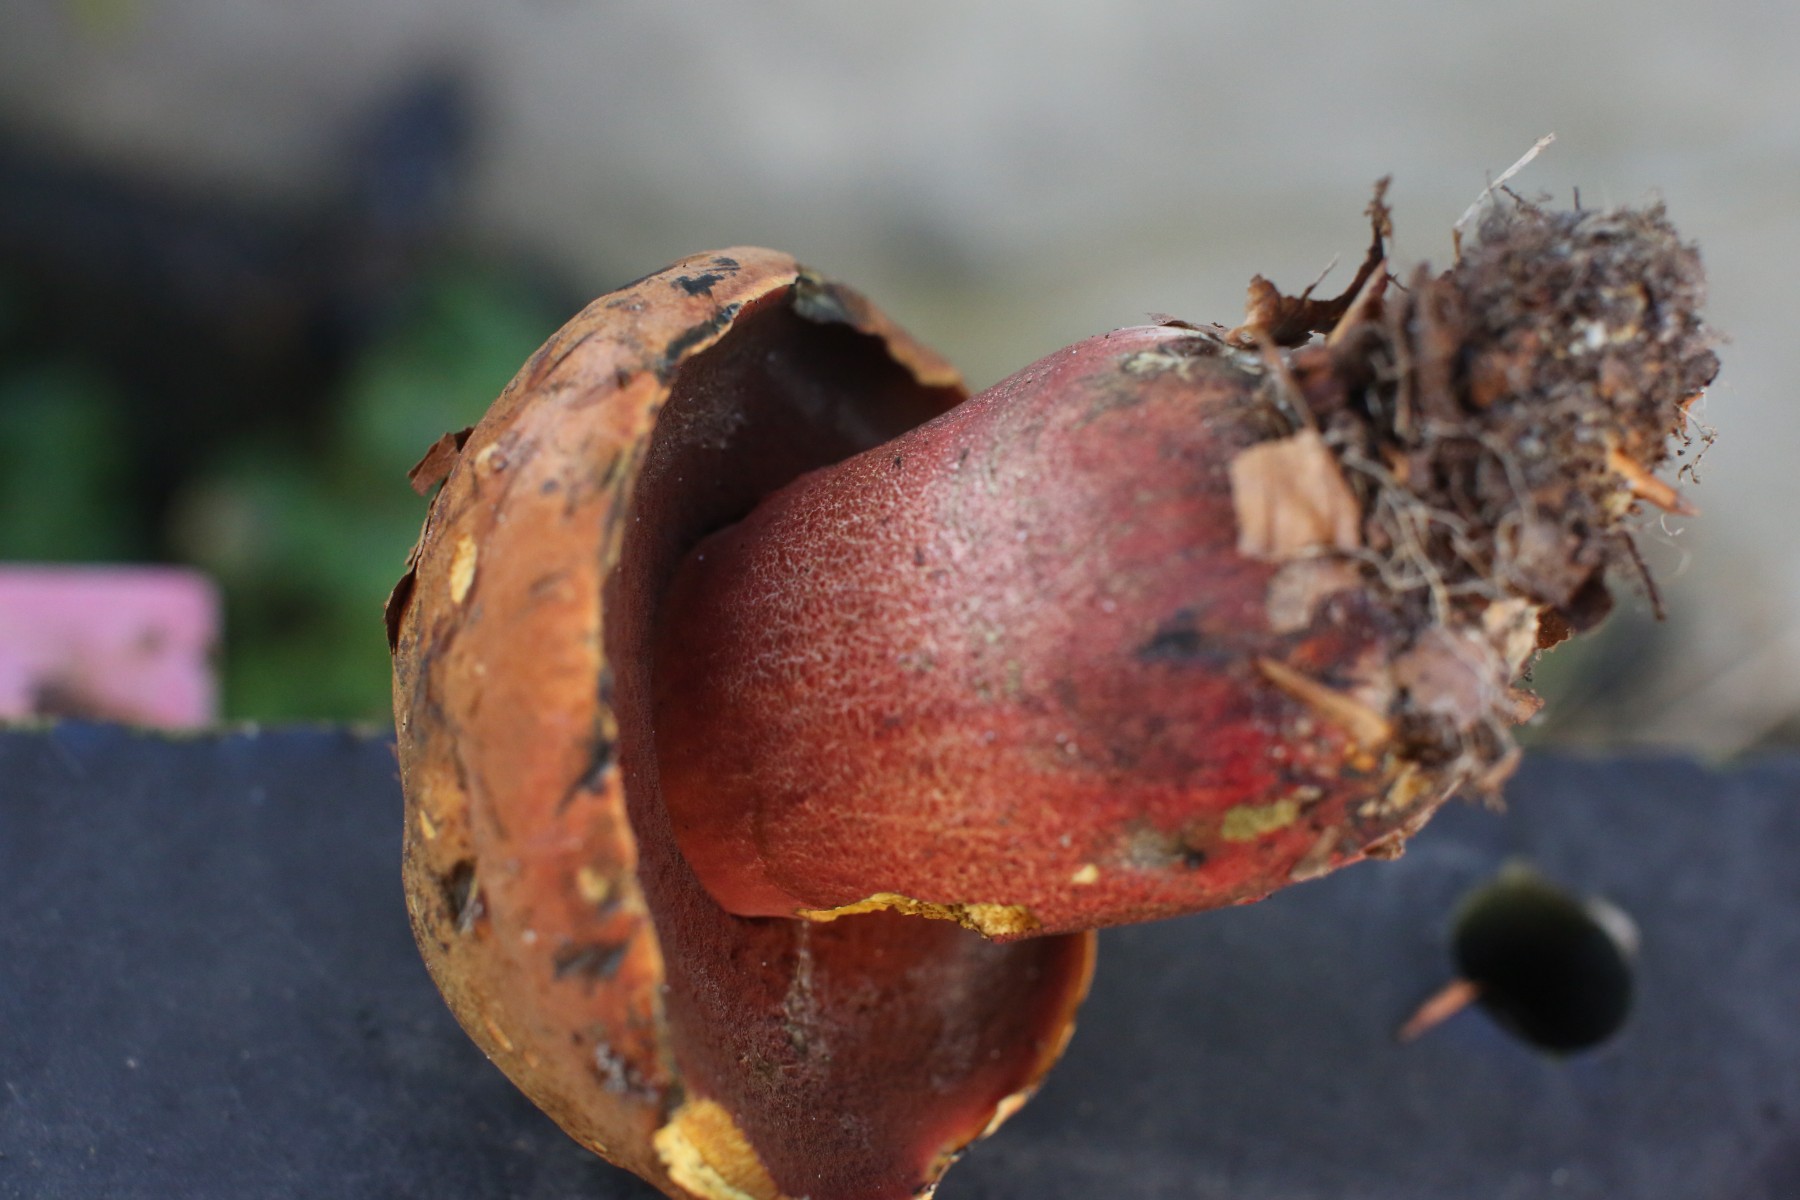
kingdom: Fungi
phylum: Basidiomycota
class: Agaricomycetes
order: Boletales
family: Boletaceae
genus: Neoboletus
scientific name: Neoboletus erythropus
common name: punktstokket indigorørhat
